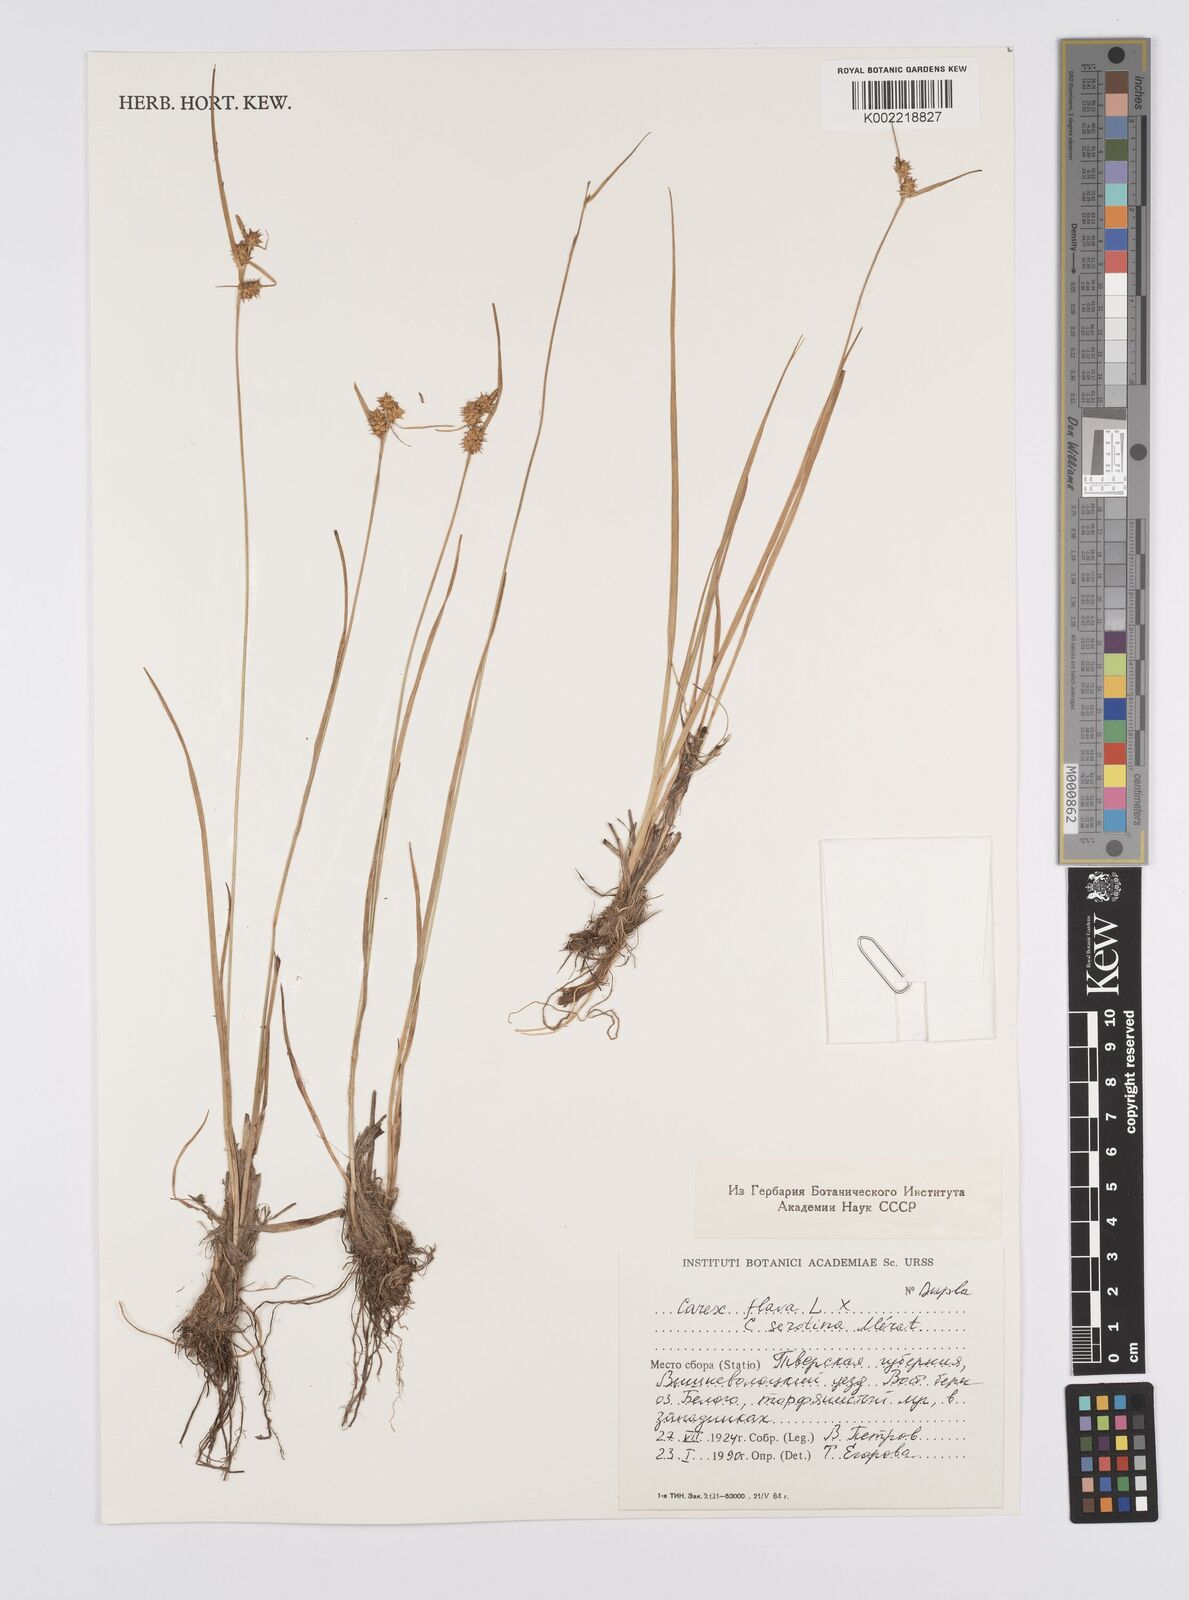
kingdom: Plantae
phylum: Tracheophyta
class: Liliopsida
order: Poales
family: Cyperaceae
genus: Carex
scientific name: Carex flava
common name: Large yellow-sedge
